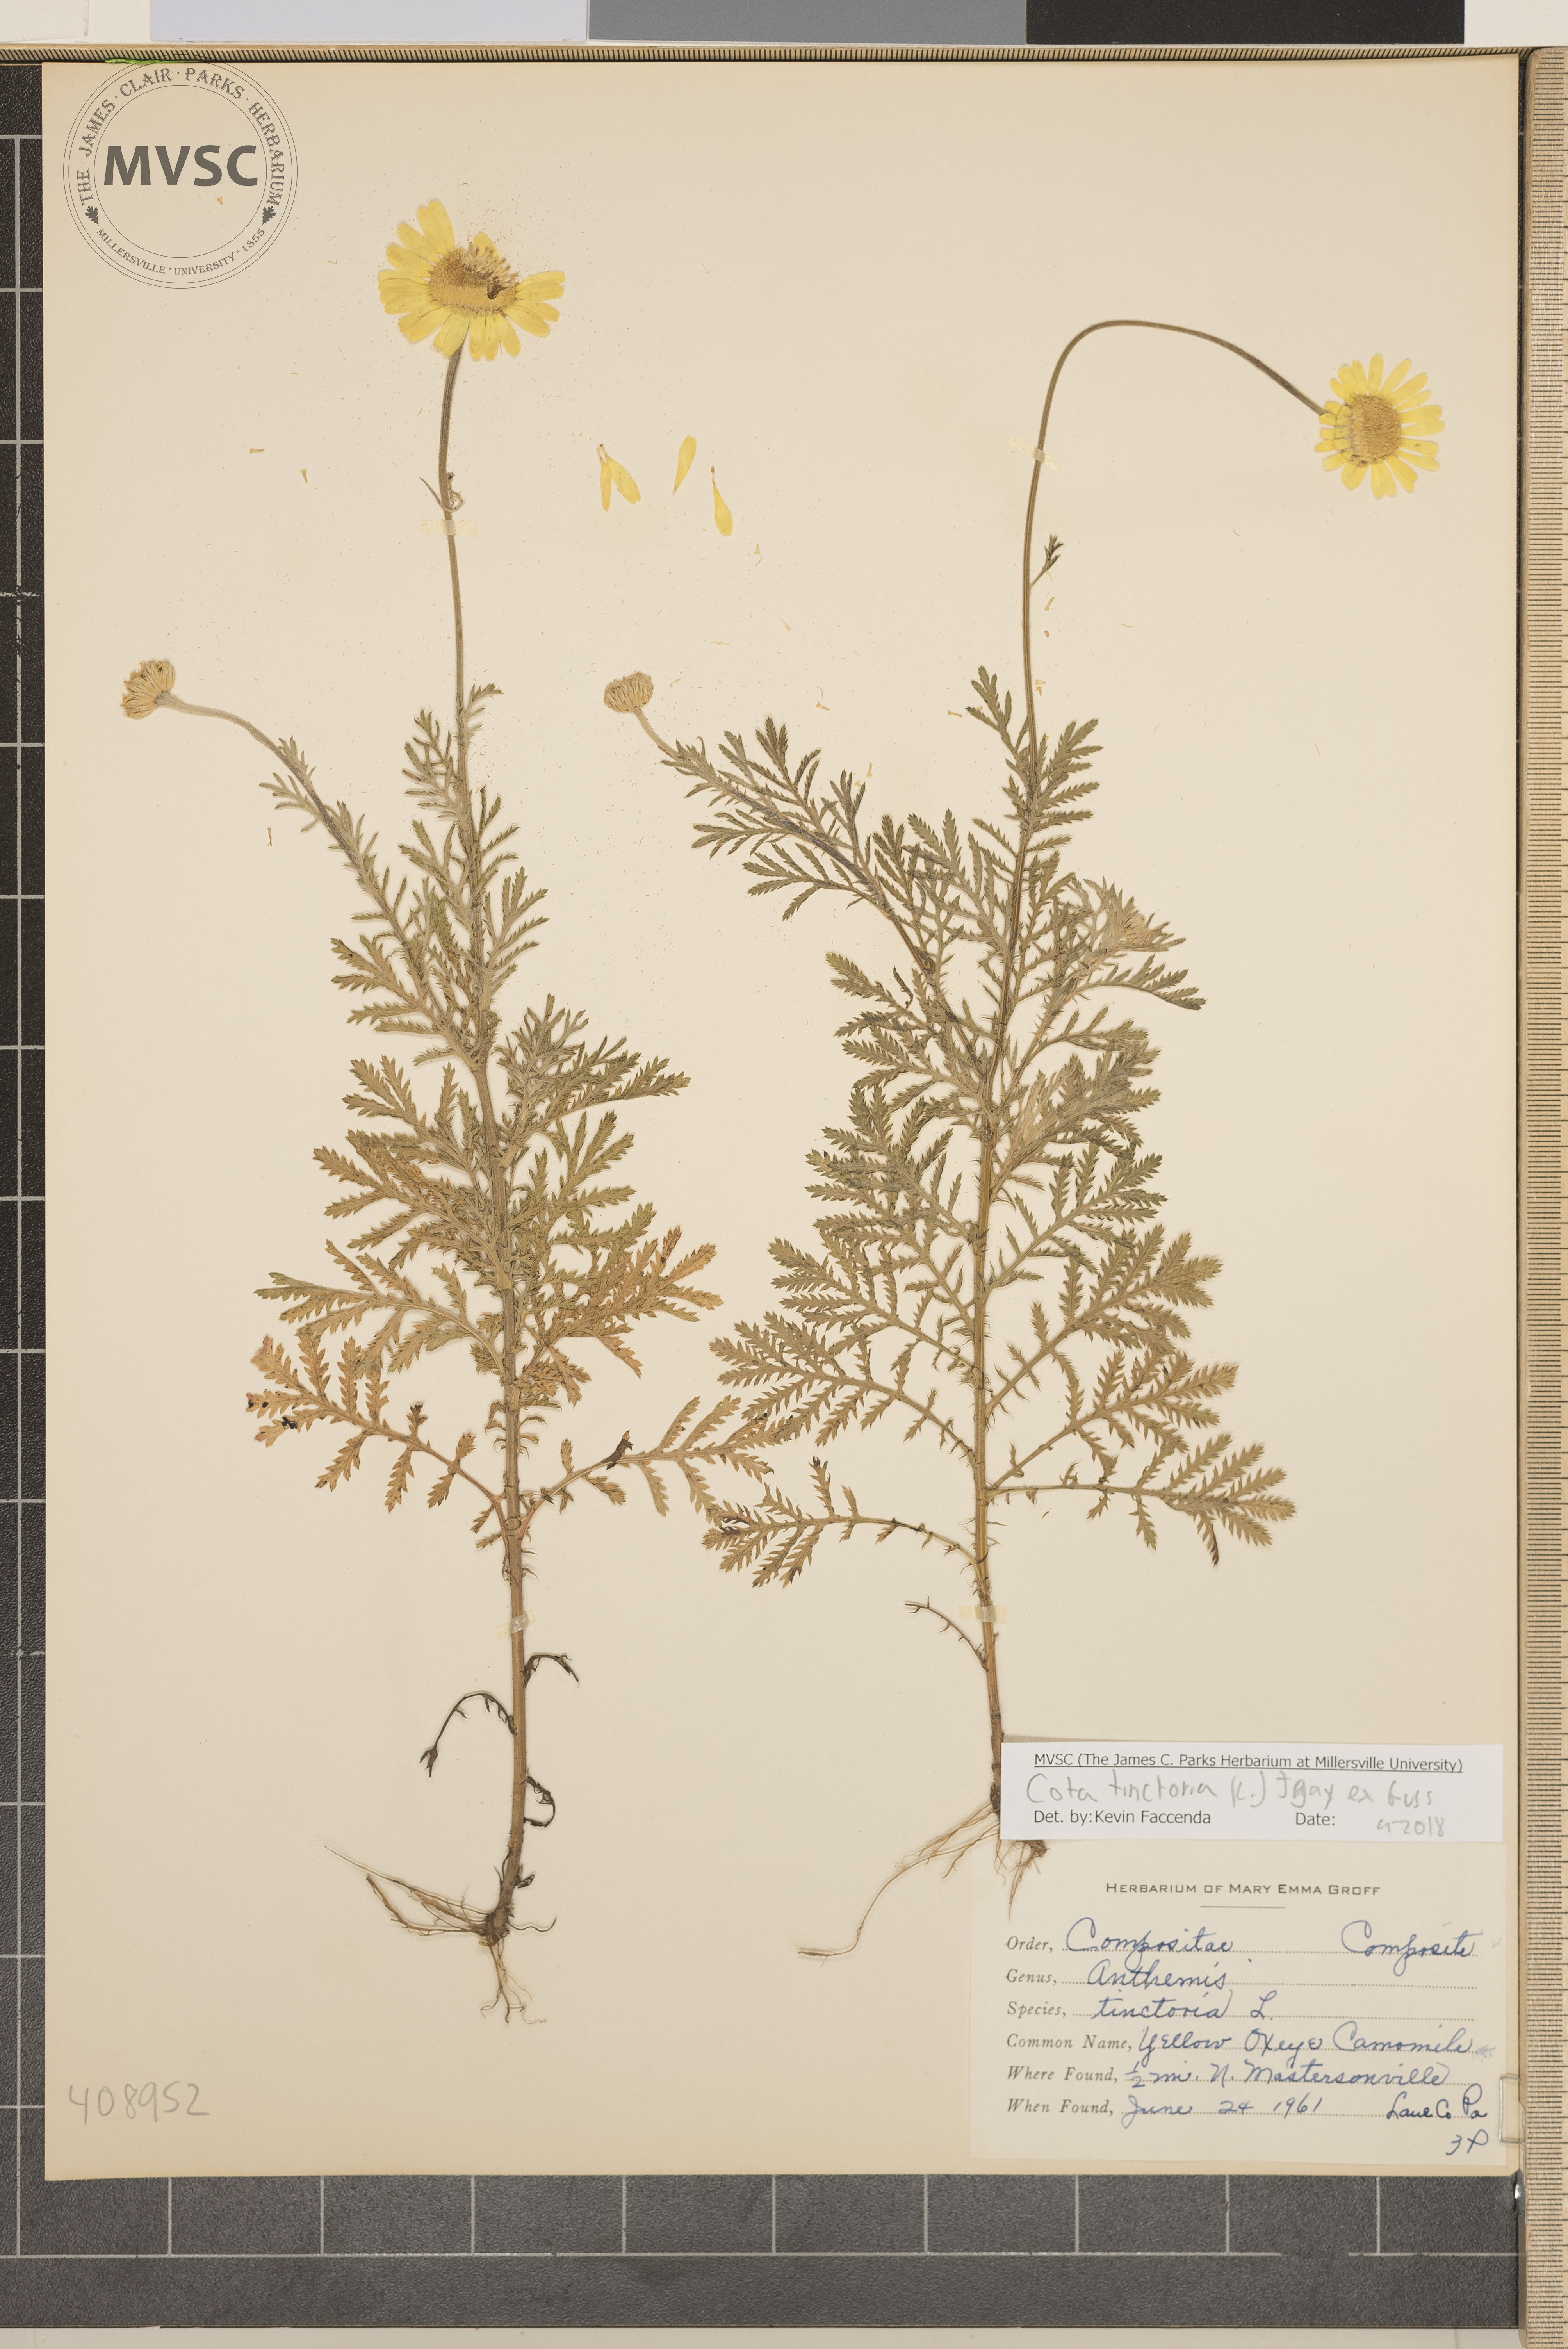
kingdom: Plantae
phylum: Tracheophyta
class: Magnoliopsida
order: Asterales
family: Asteraceae
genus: Cota
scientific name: Cota tinctoria
